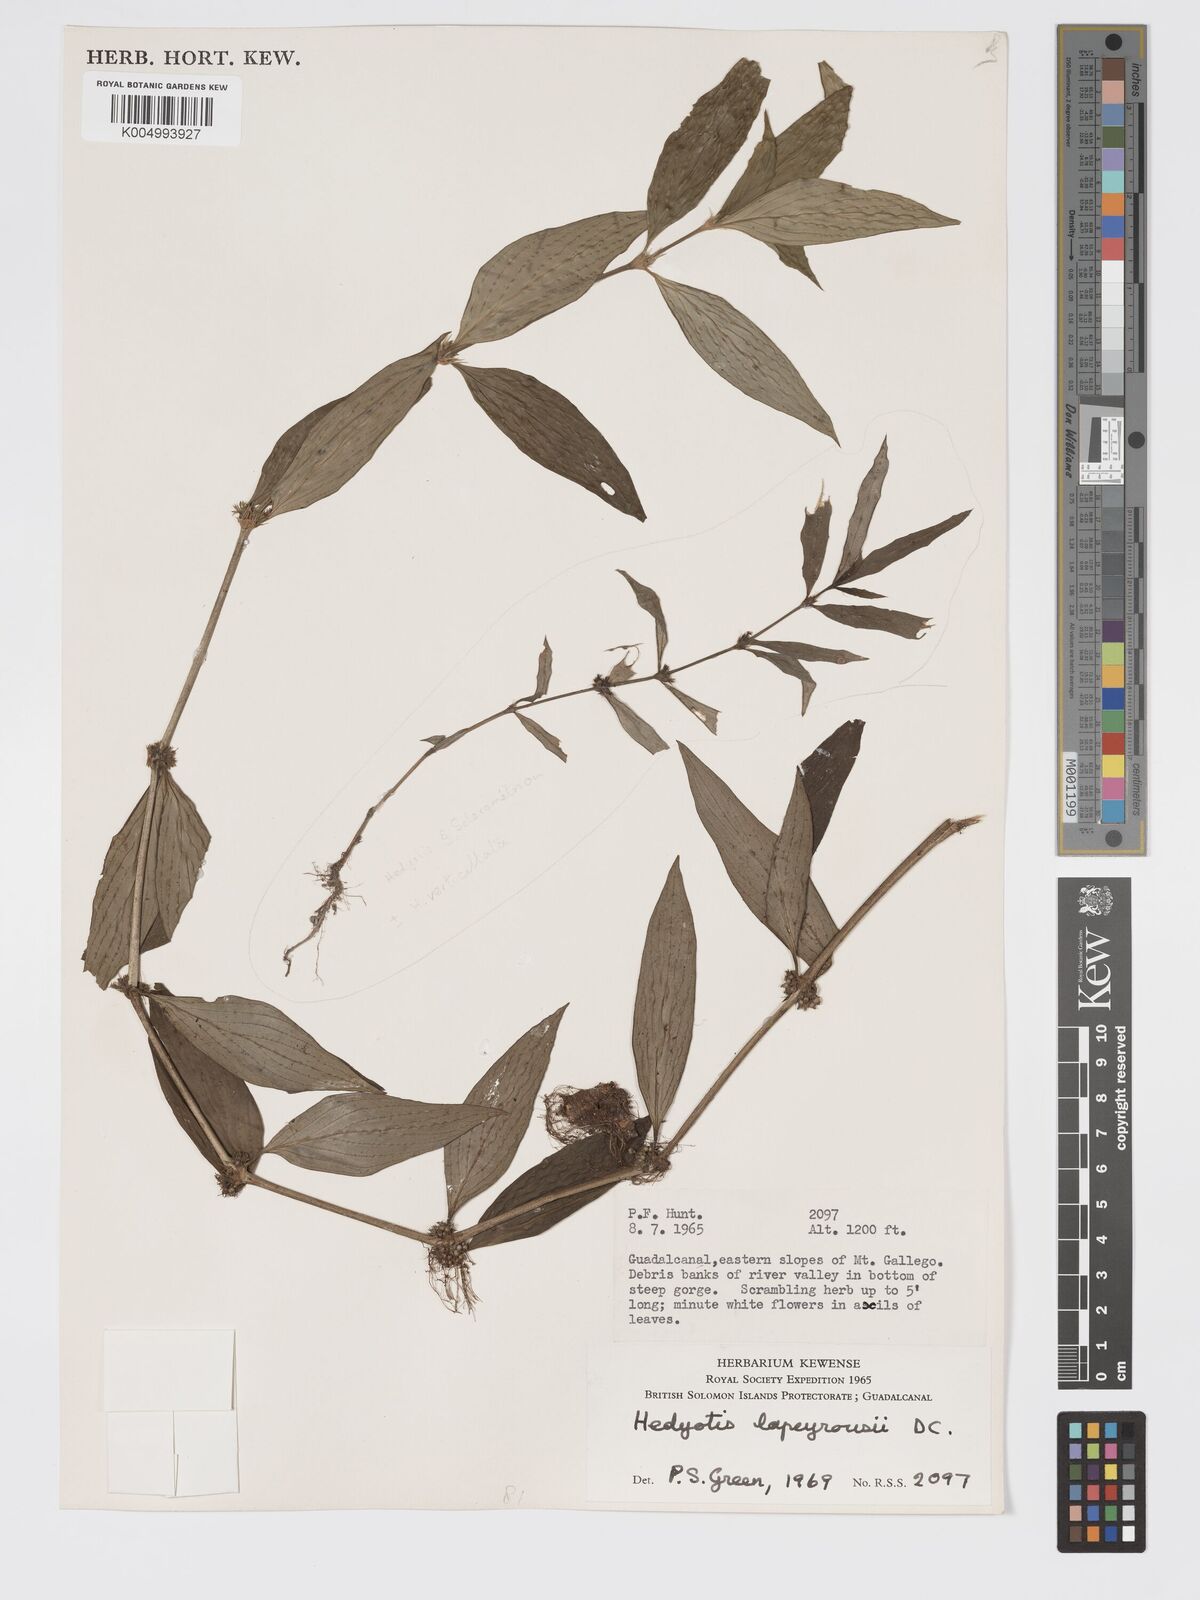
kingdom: Plantae
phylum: Tracheophyta
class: Magnoliopsida
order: Gentianales
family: Rubiaceae
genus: Exallage
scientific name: Exallage lapeyrousei
